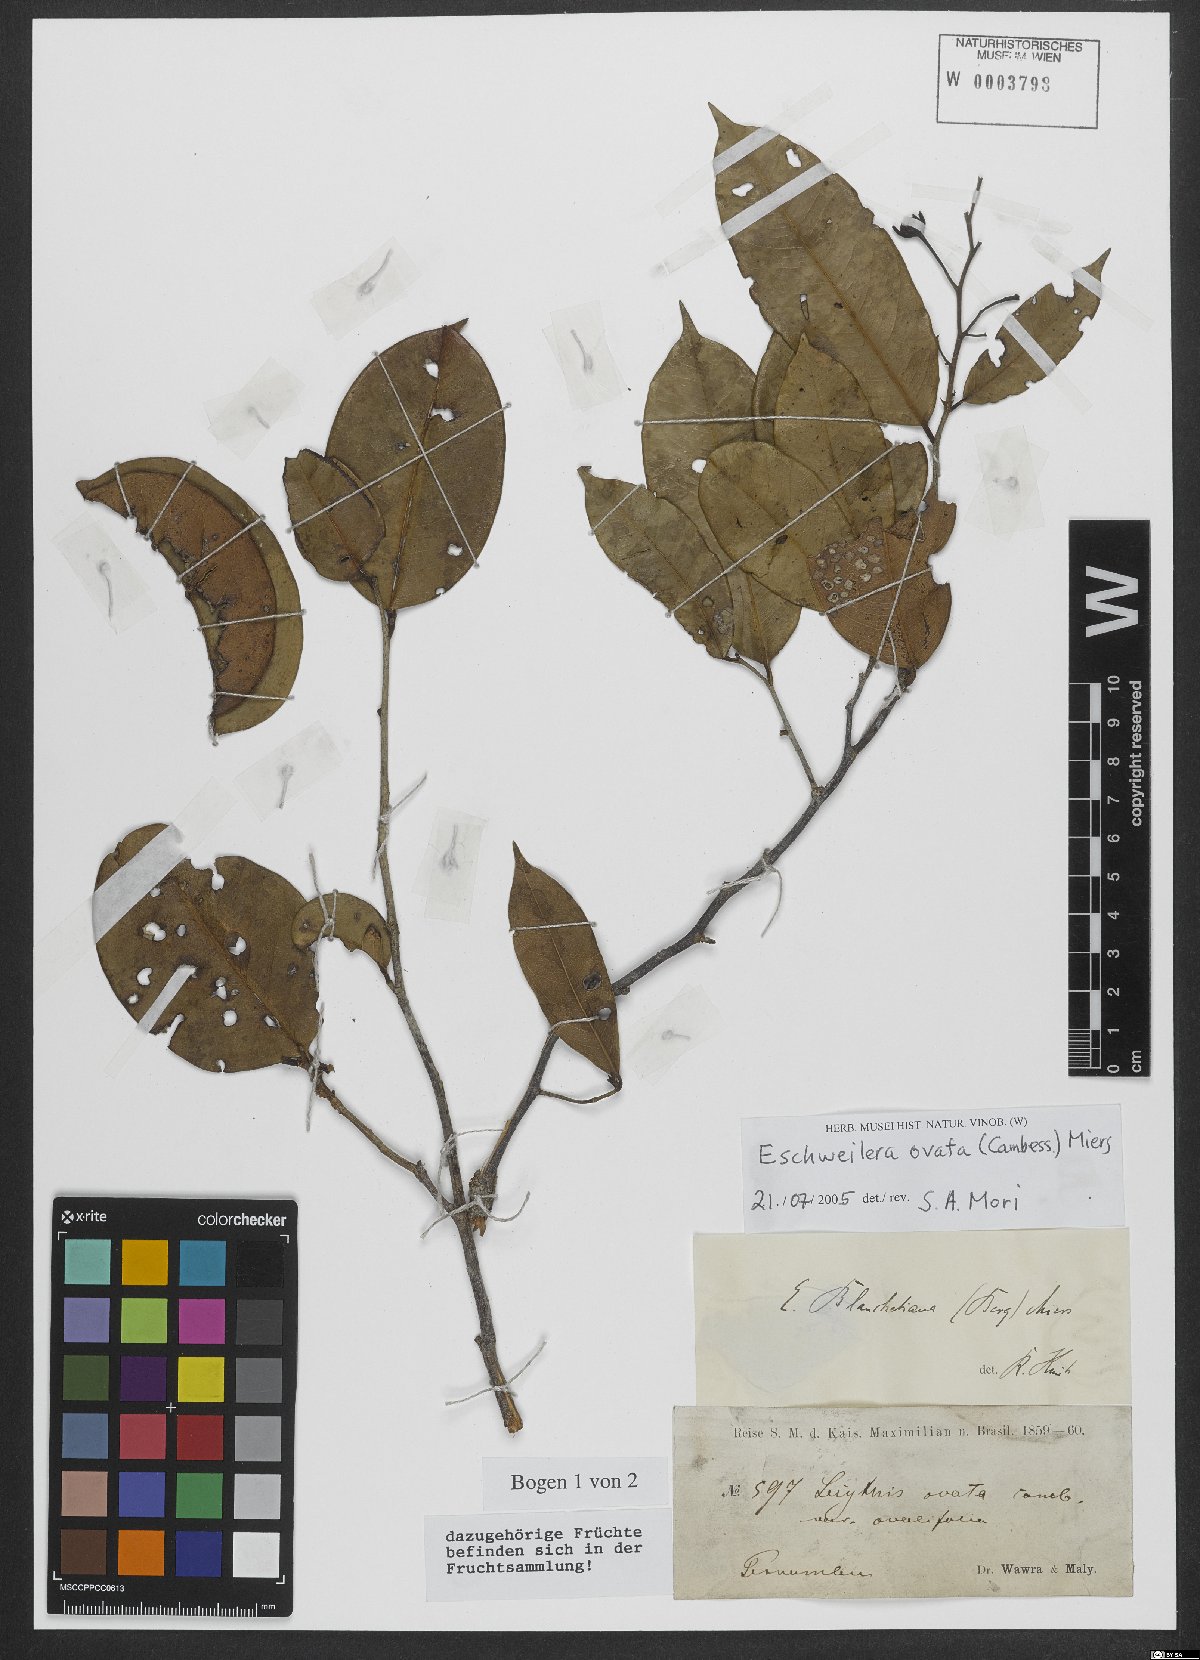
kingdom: Plantae
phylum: Tracheophyta
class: Magnoliopsida
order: Ericales
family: Lecythidaceae
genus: Eschweilera
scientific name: Eschweilera ovata
